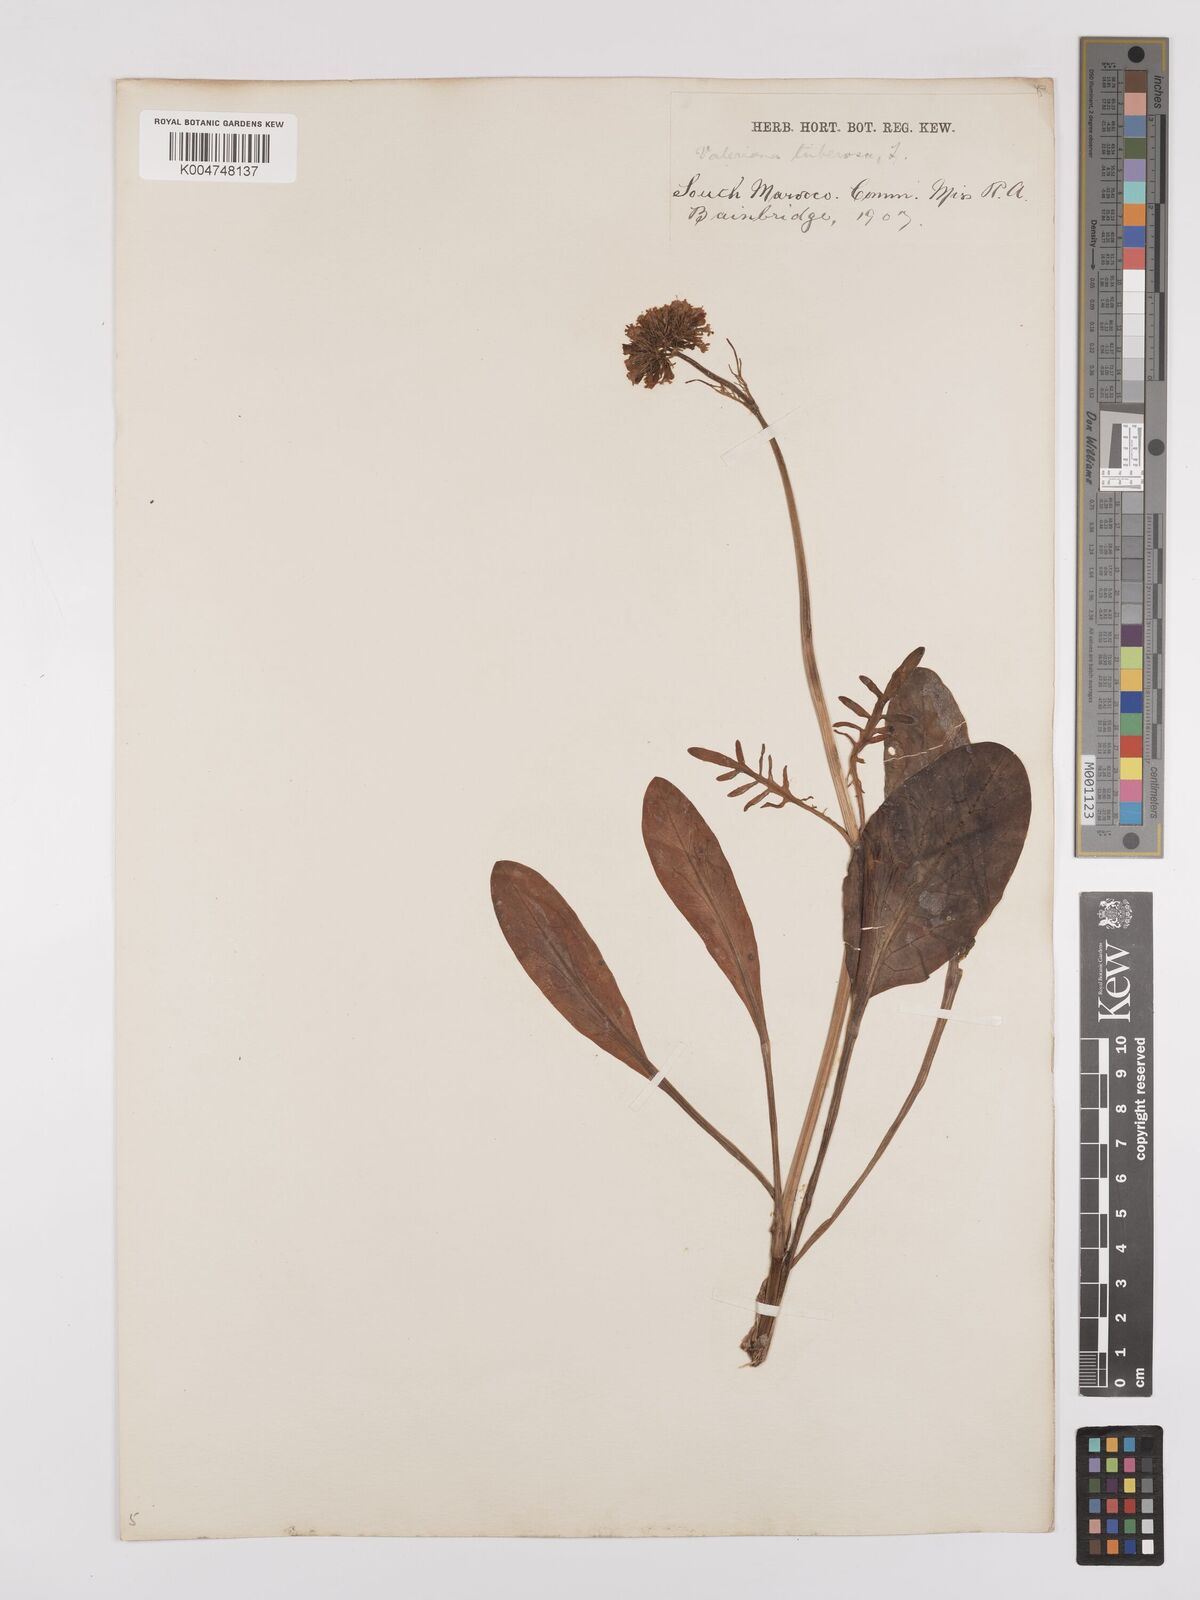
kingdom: Plantae
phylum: Tracheophyta
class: Magnoliopsida
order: Dipsacales
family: Caprifoliaceae
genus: Valeriana
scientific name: Valeriana tuberosa
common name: Tuberous valerian
